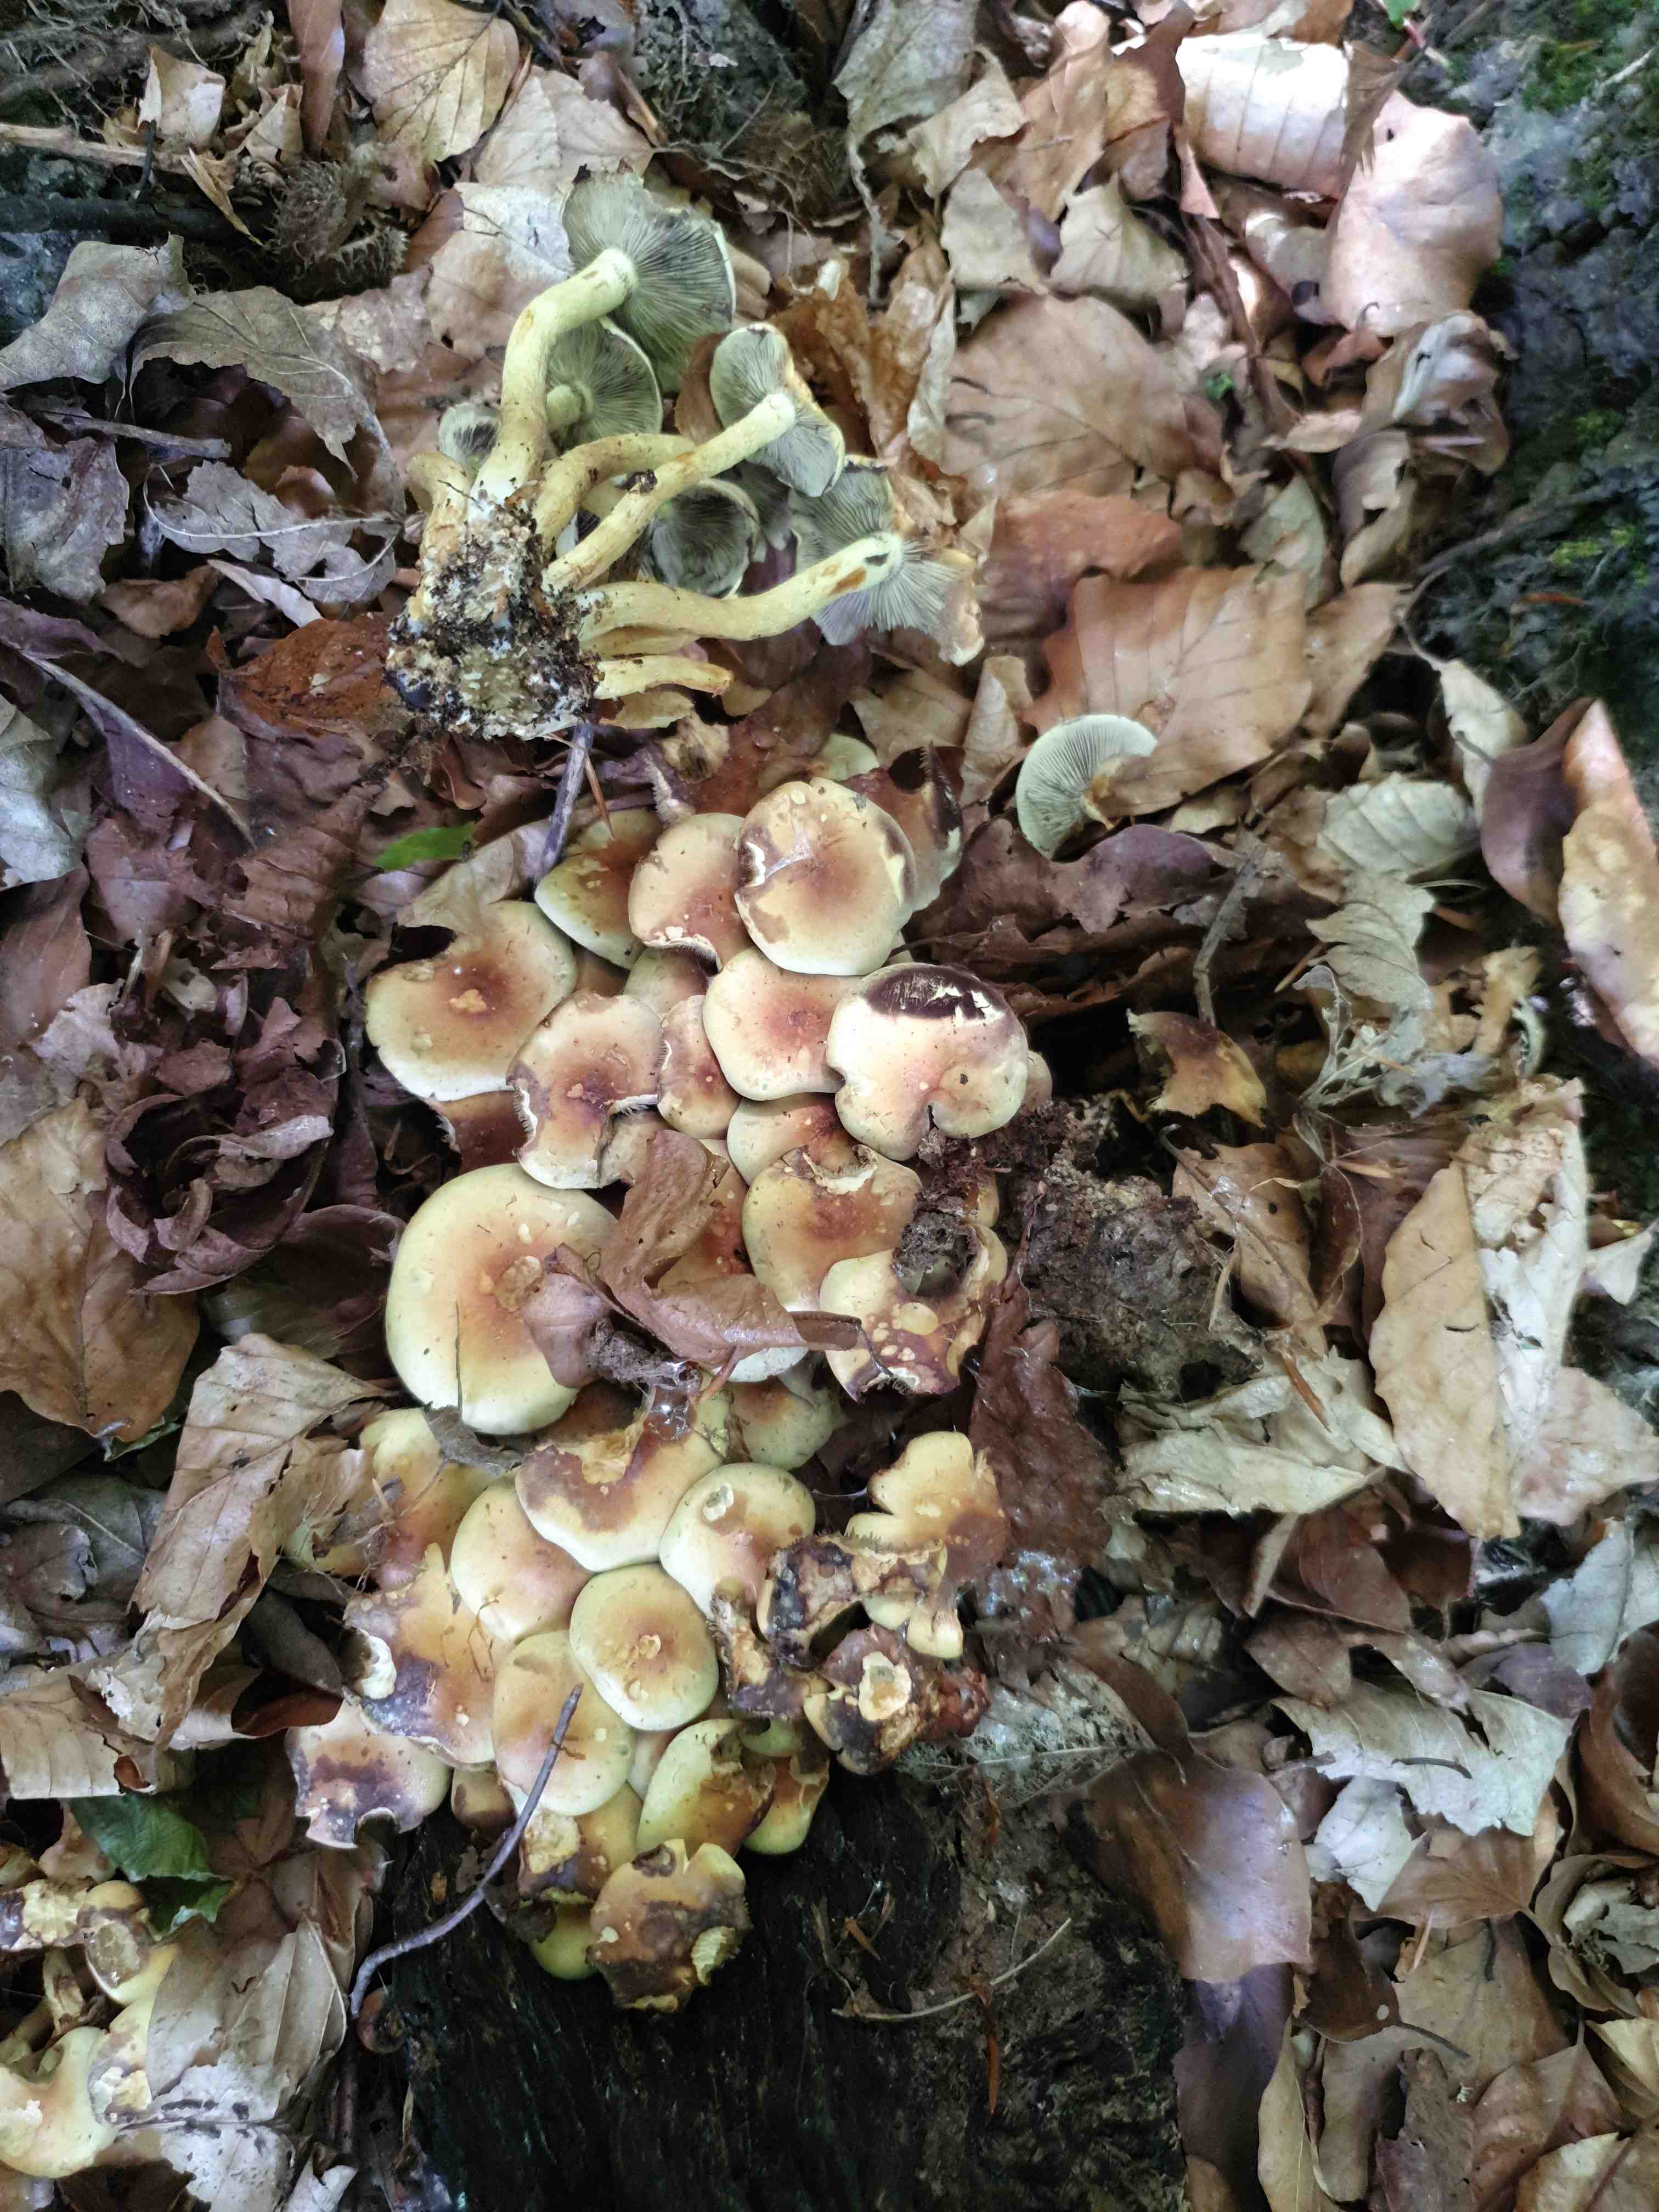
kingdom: Fungi
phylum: Basidiomycota
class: Agaricomycetes
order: Agaricales
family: Strophariaceae
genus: Hypholoma
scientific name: Hypholoma fasciculare
